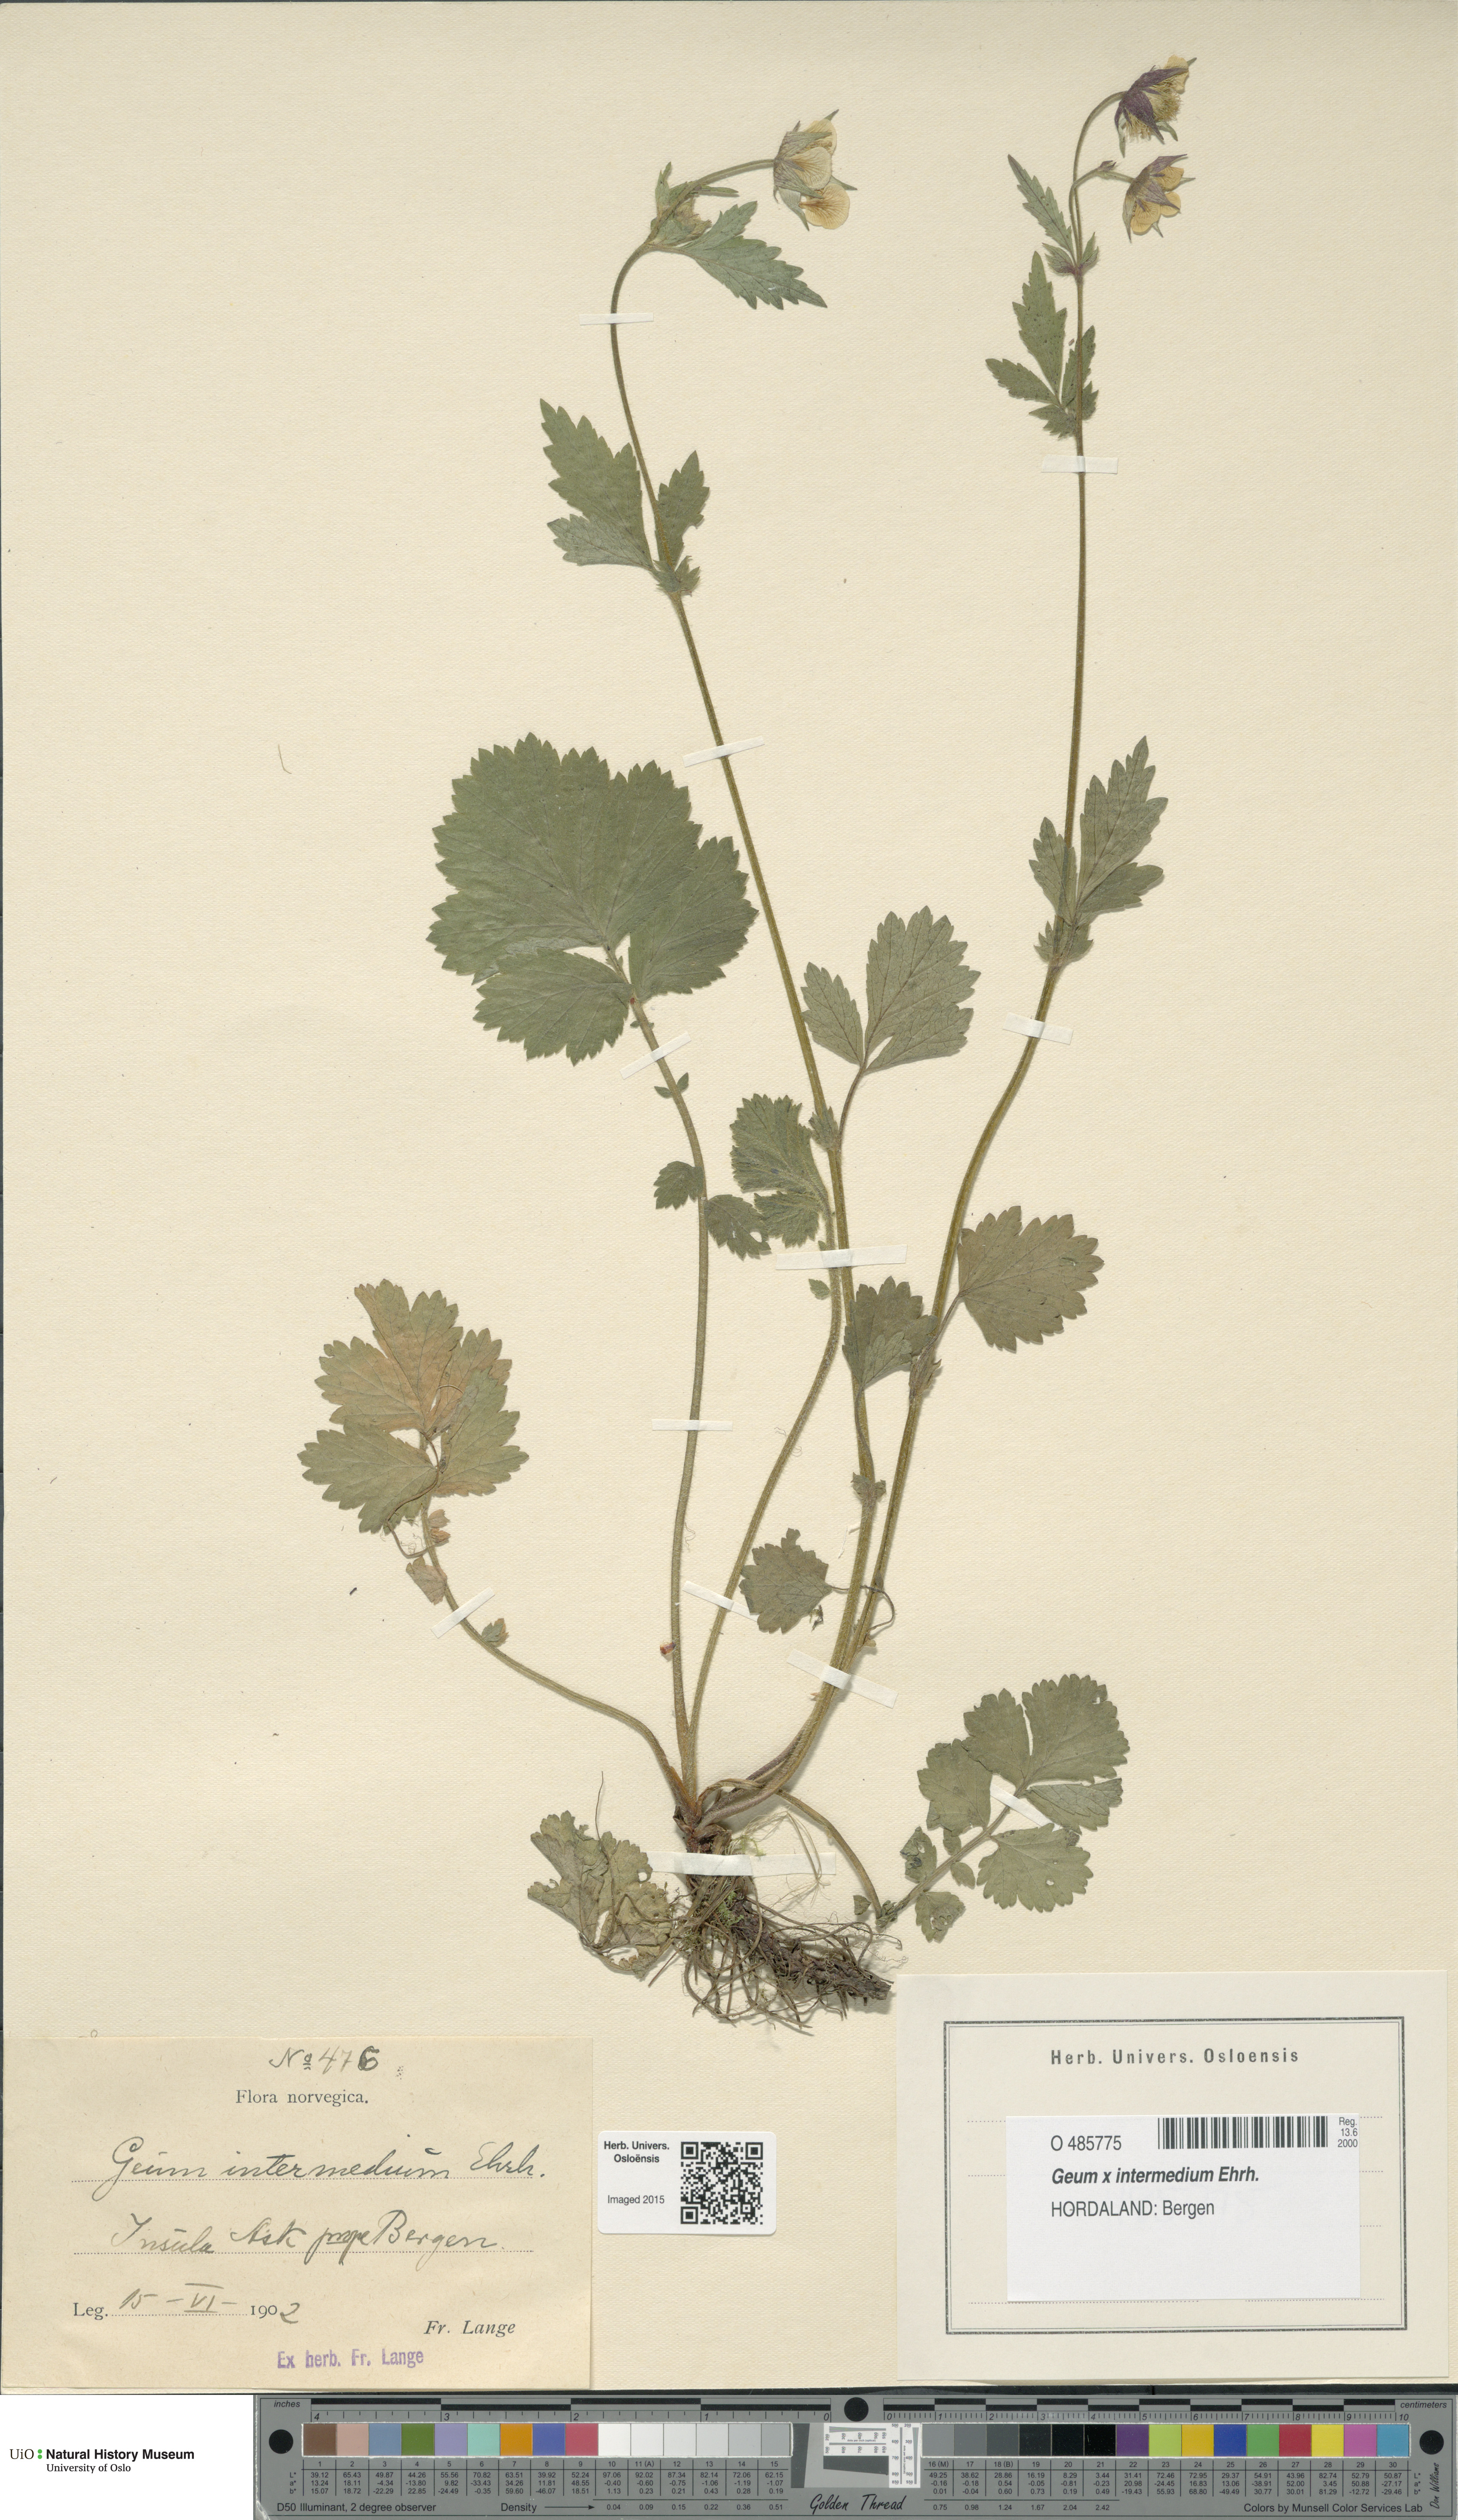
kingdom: Plantae
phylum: Tracheophyta
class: Magnoliopsida
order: Rosales
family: Rosaceae
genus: Geum
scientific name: Geum intermedium
